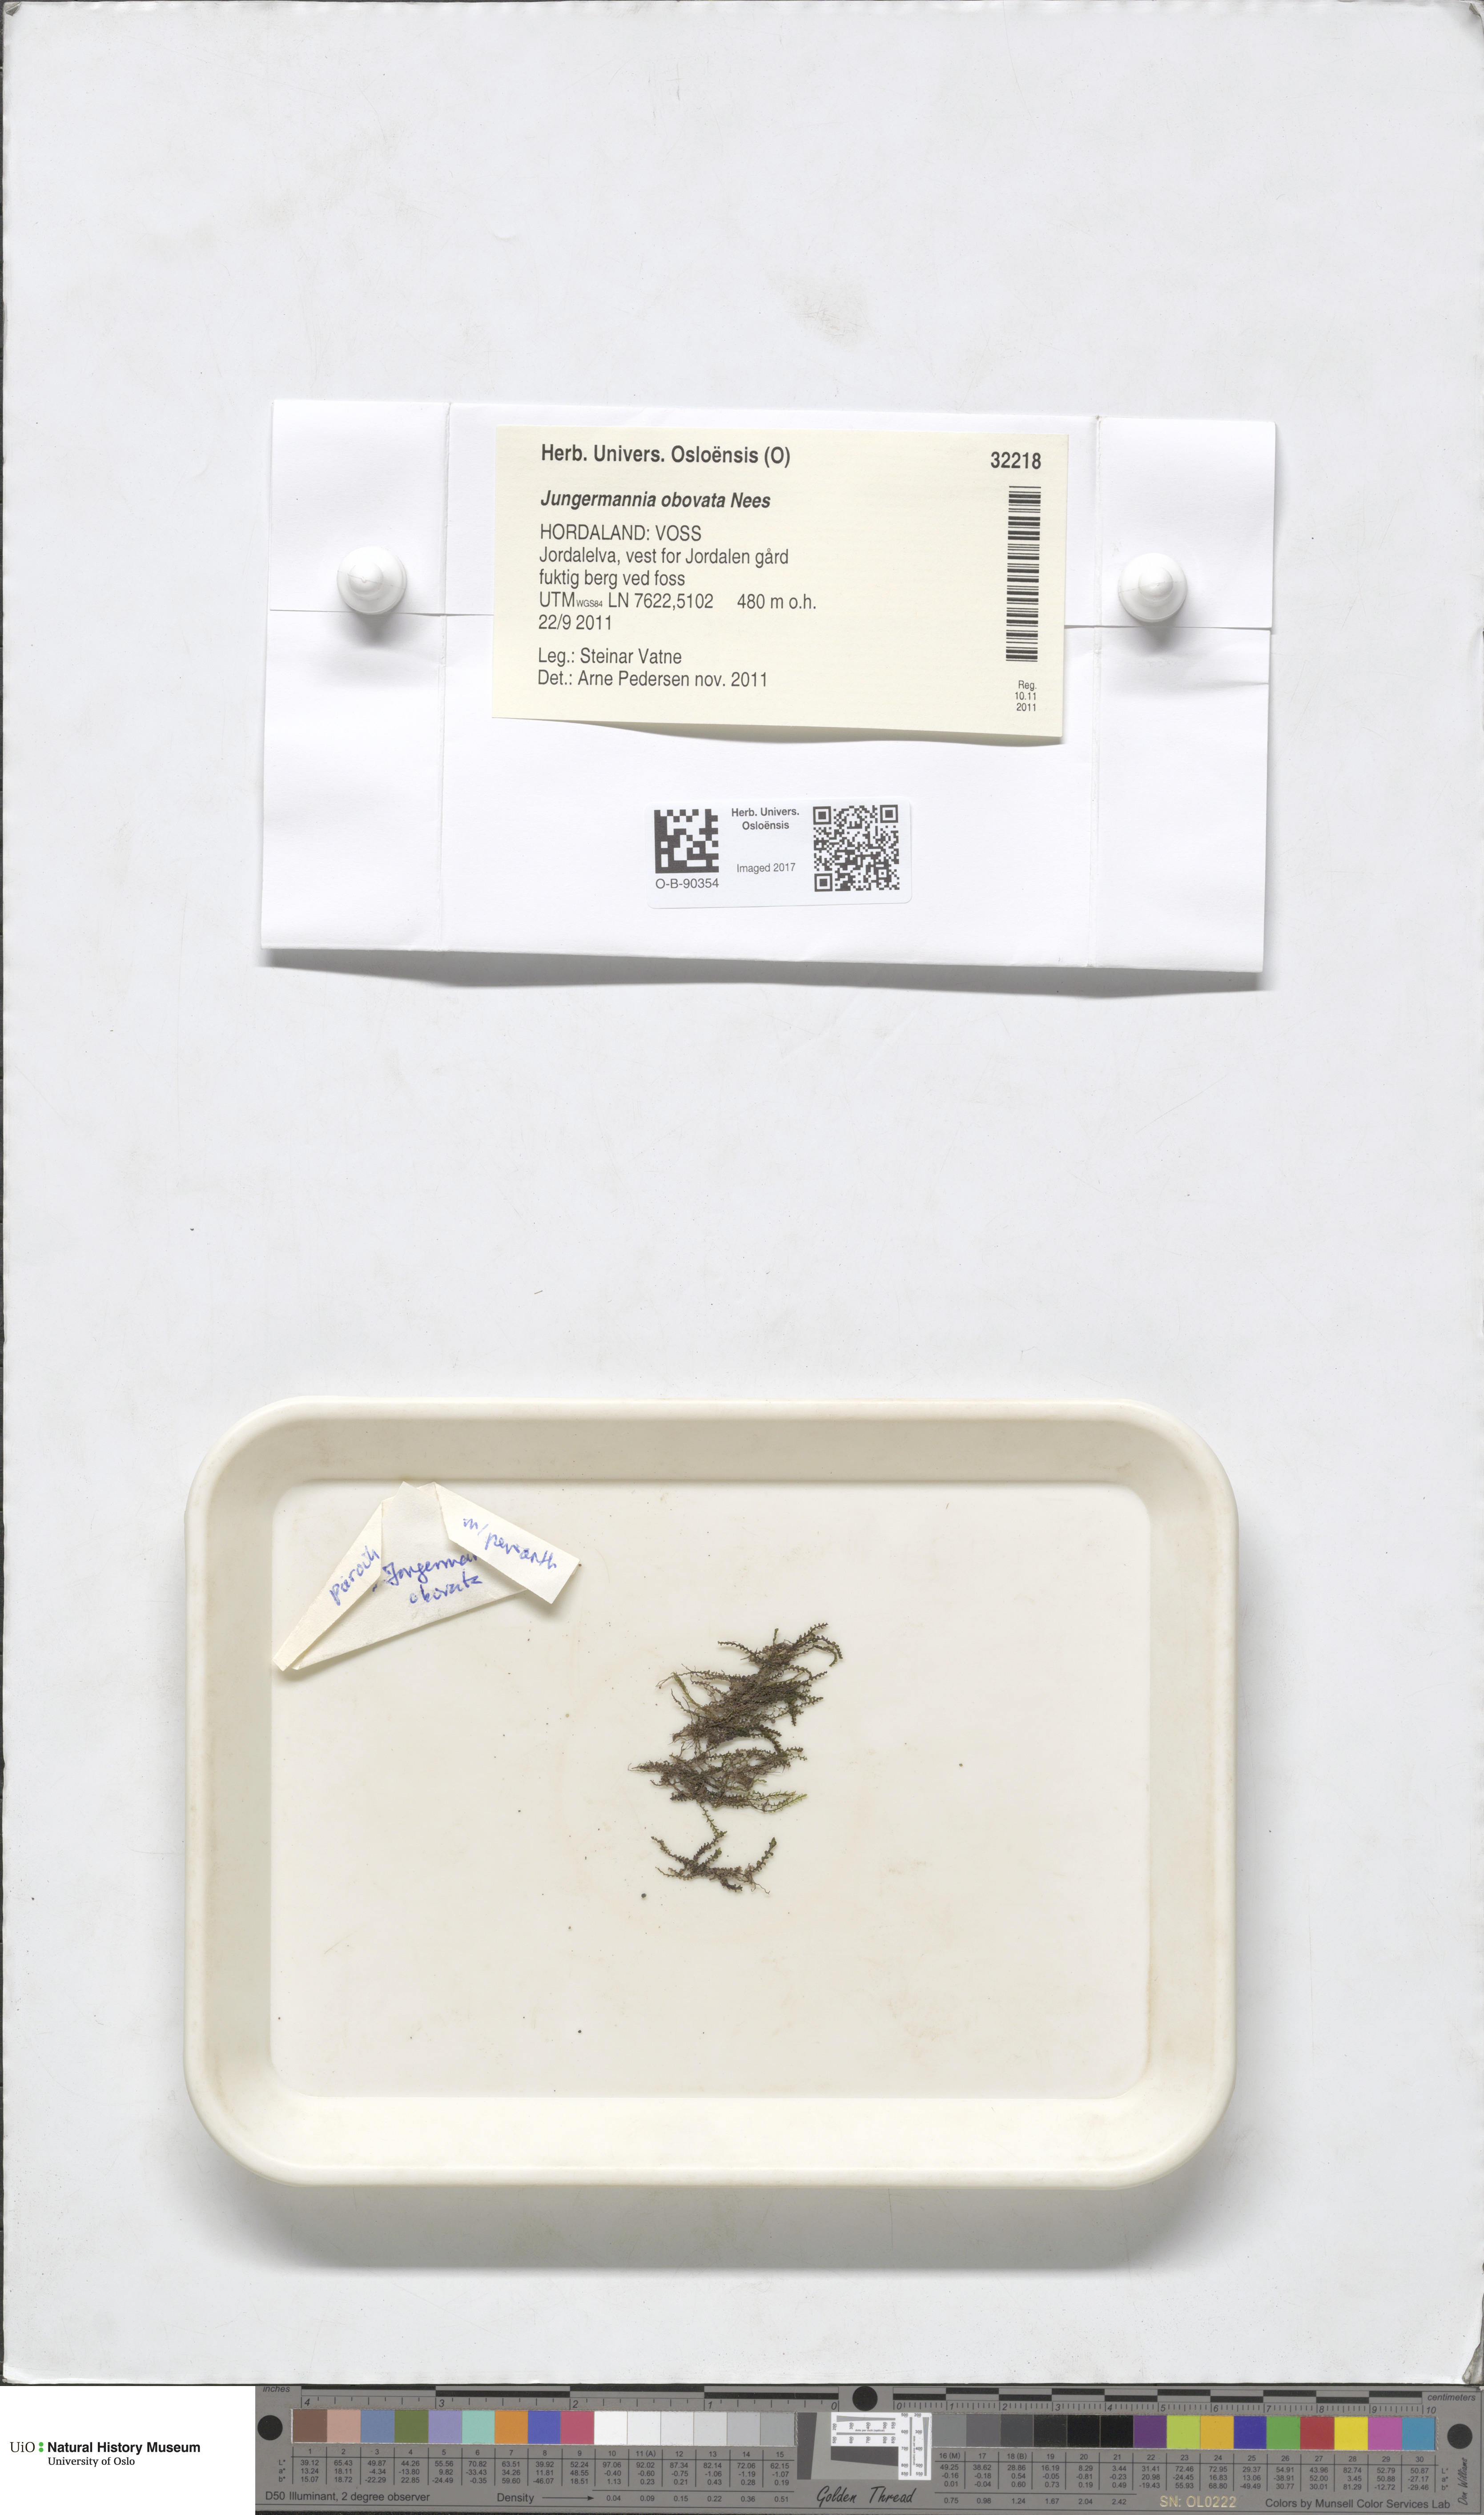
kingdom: Plantae
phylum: Marchantiophyta
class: Jungermanniopsida
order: Jungermanniales
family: Solenostomataceae
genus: Solenostoma
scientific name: Solenostoma obovatum
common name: Egg flapwort
